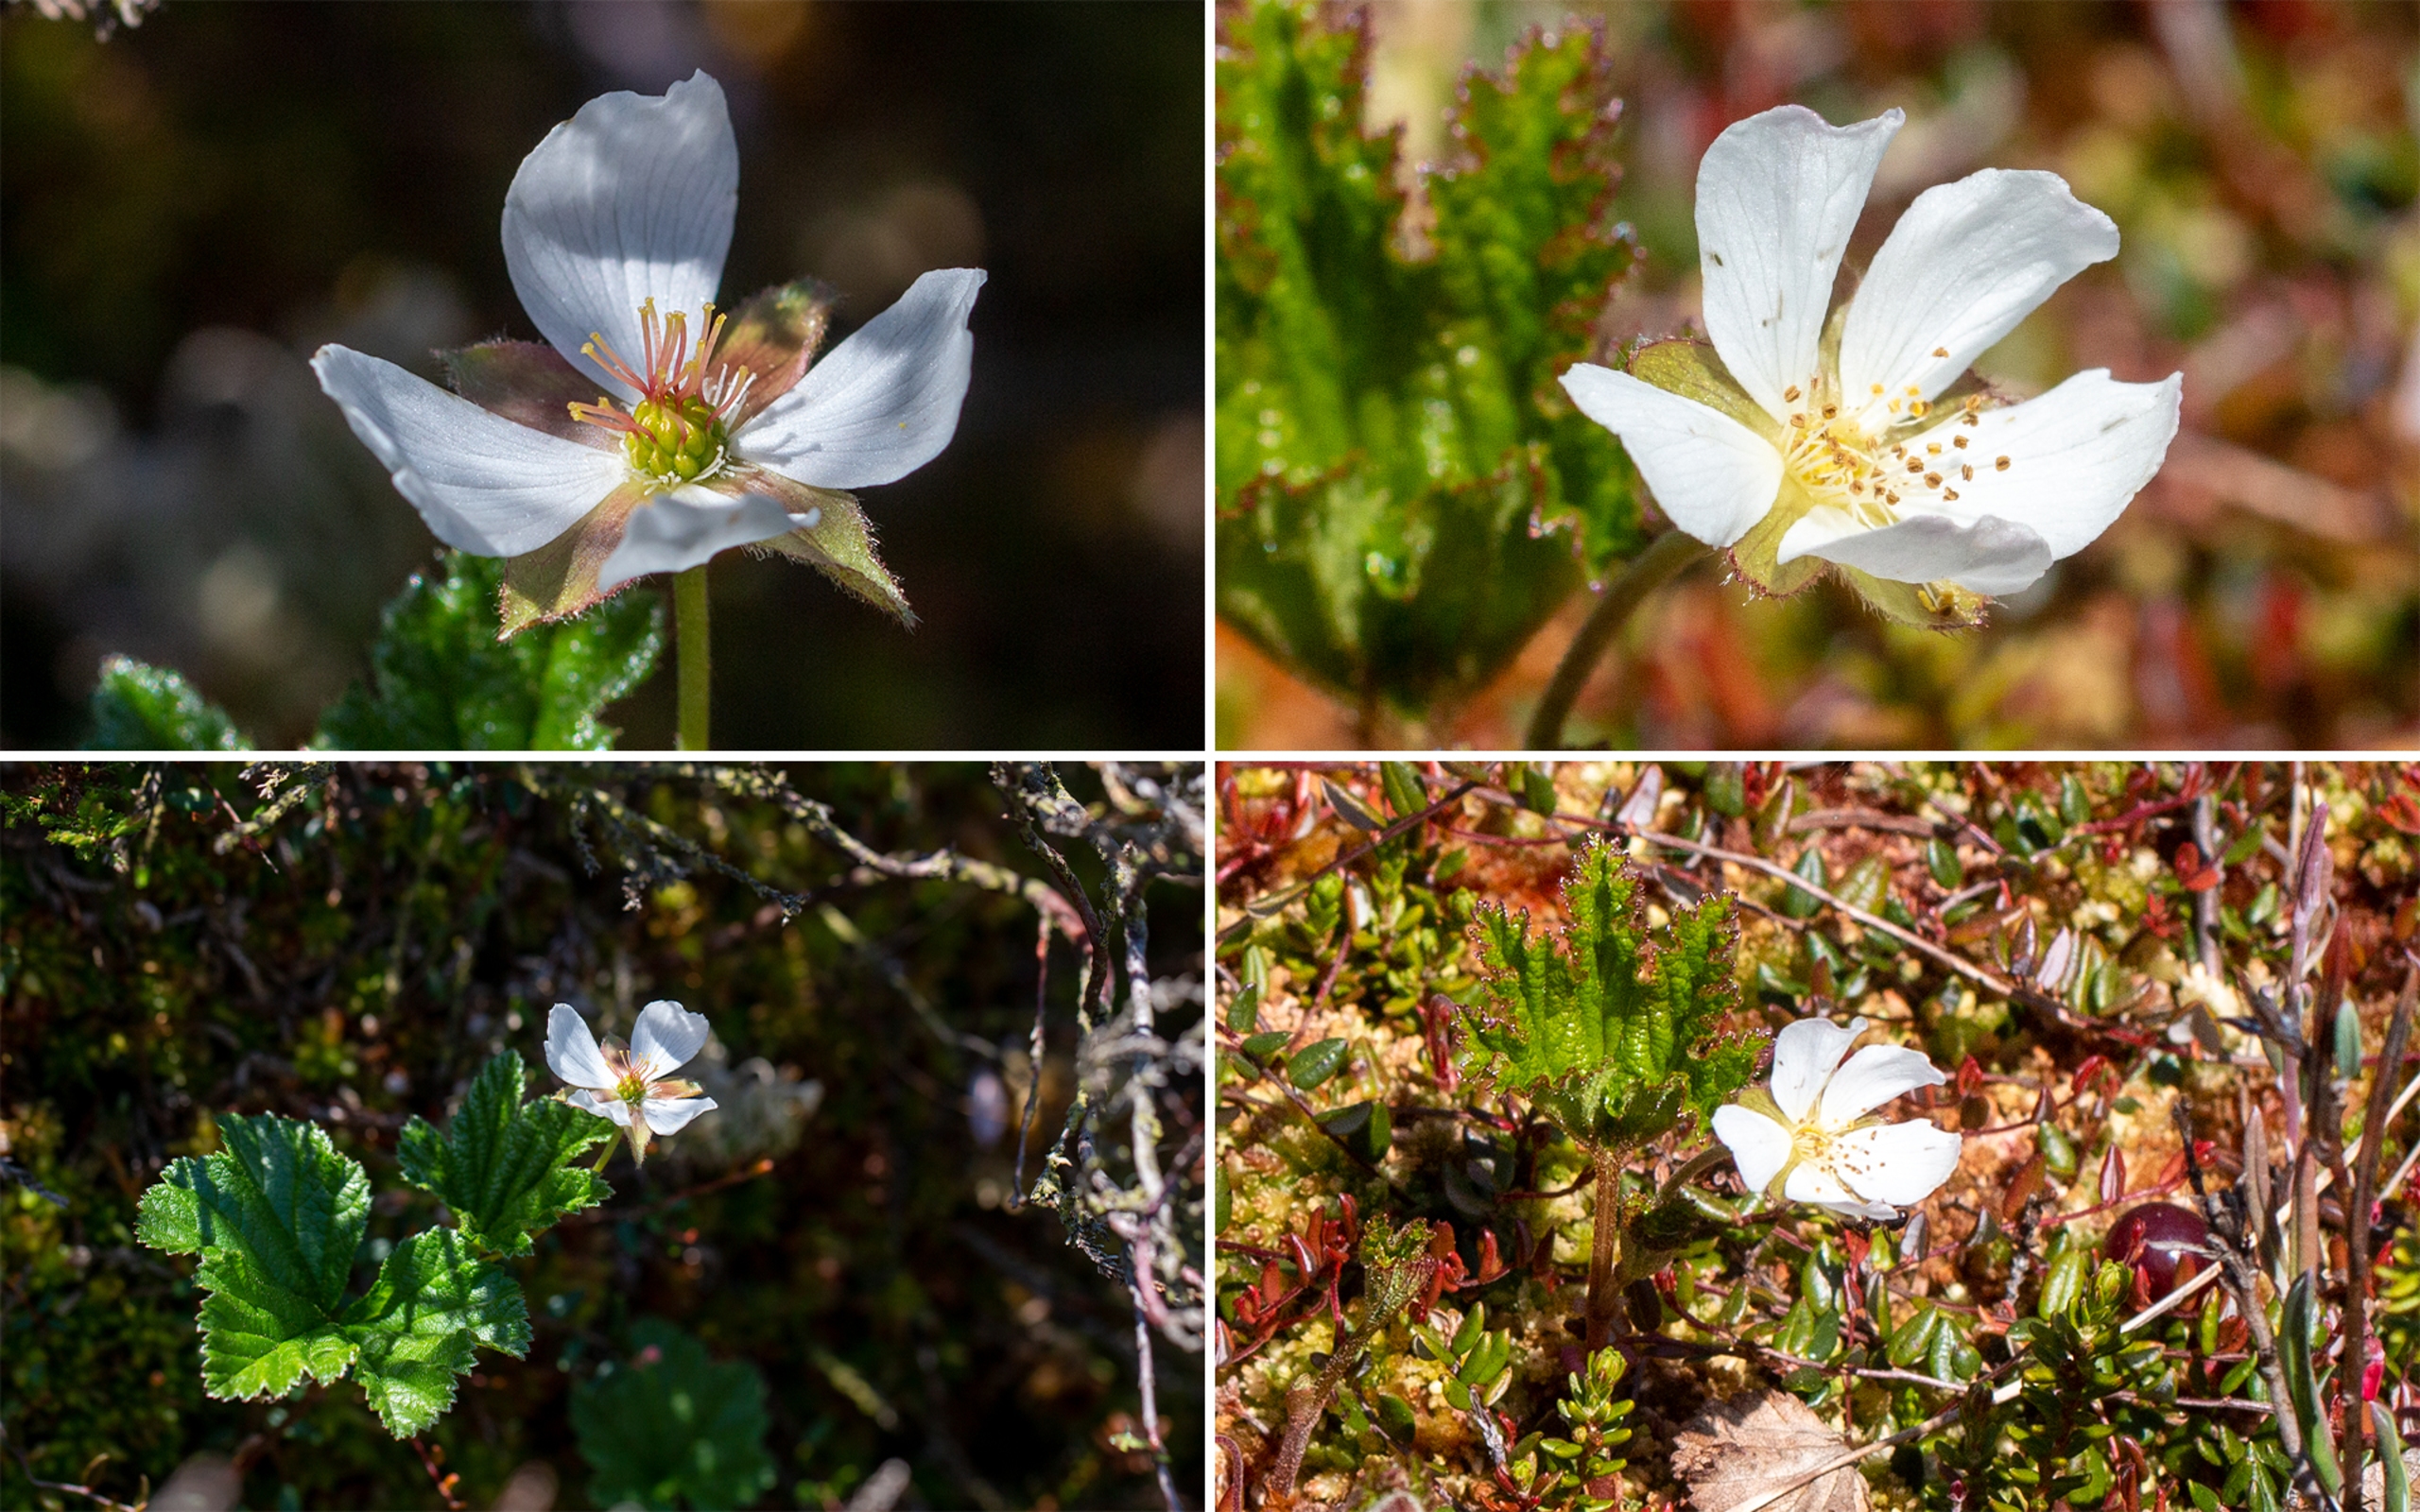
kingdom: Plantae
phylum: Tracheophyta
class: Magnoliopsida
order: Rosales
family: Rosaceae
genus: Rubus
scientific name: Rubus chamaemorus
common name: Multebær
